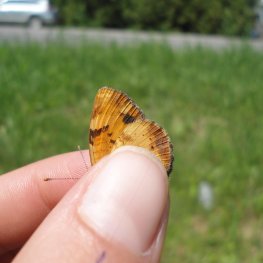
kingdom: Animalia
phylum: Arthropoda
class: Insecta
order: Lepidoptera
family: Nymphalidae
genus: Phyciodes
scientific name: Phyciodes tharos
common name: Northern Crescent
